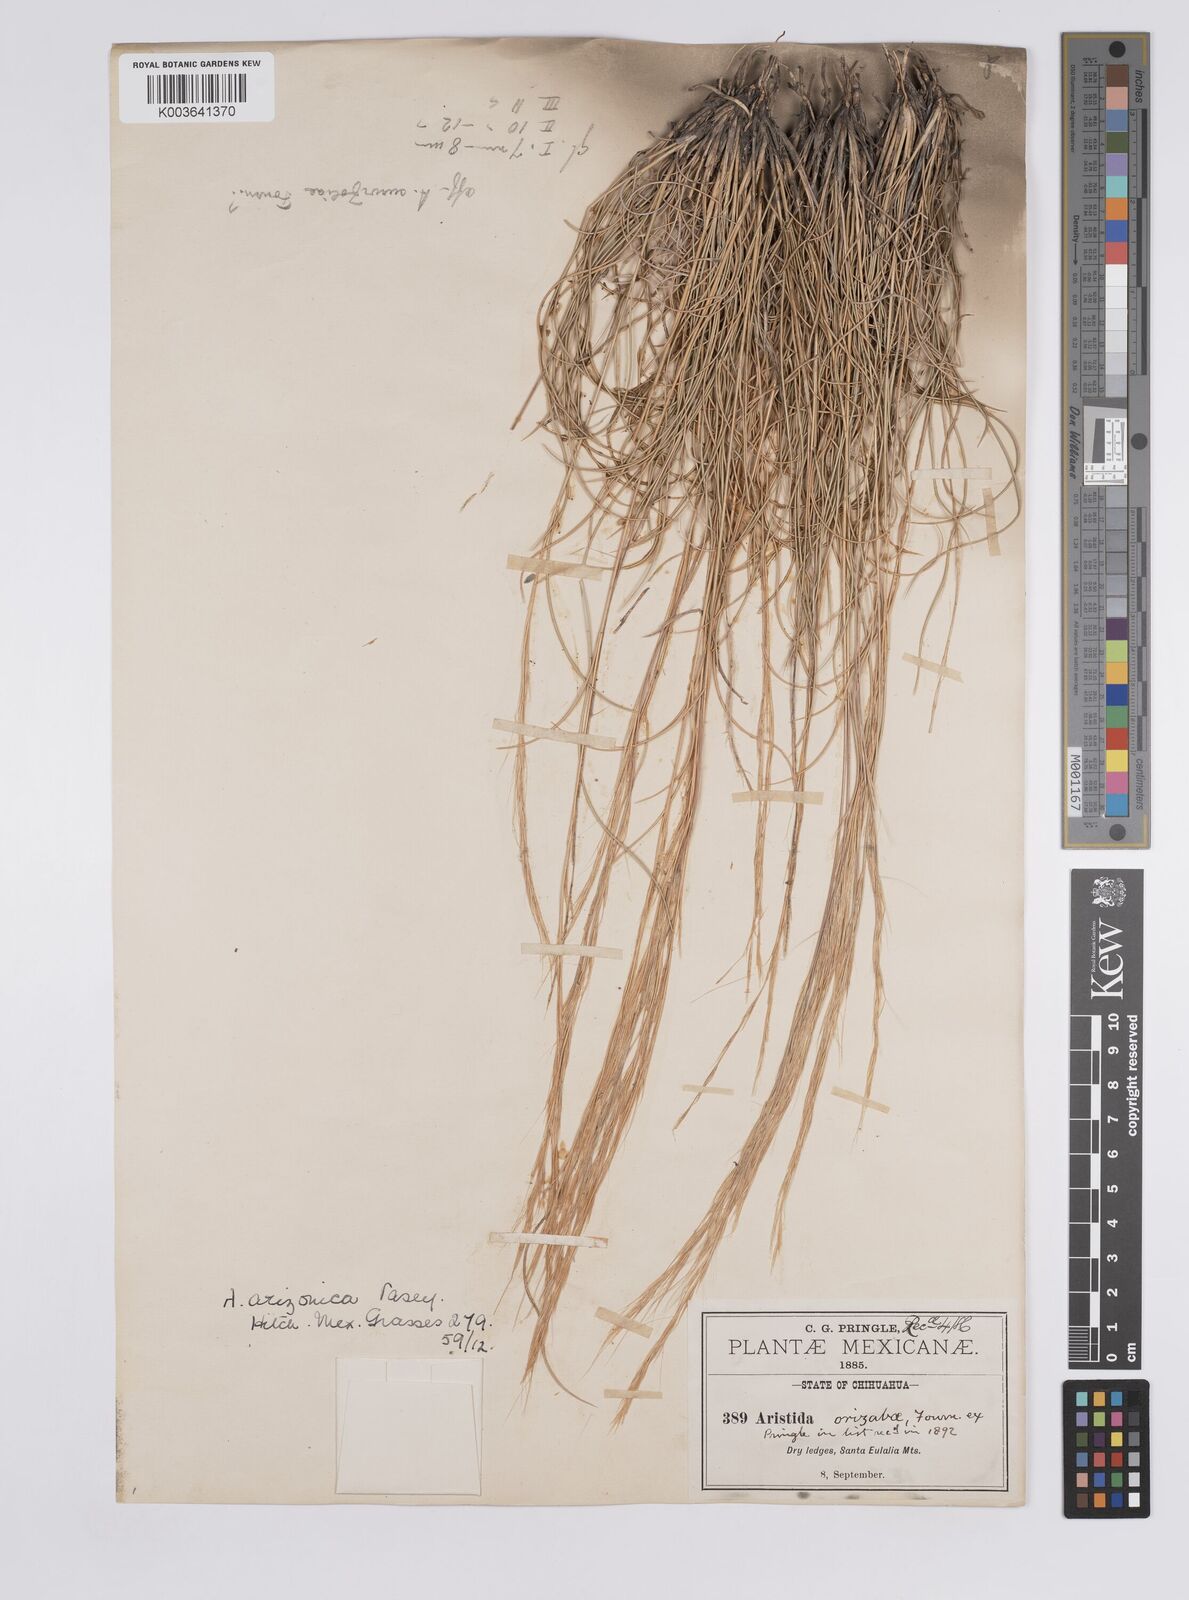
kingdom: Plantae
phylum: Tracheophyta
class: Liliopsida
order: Poales
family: Poaceae
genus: Aristida
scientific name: Aristida arizonica
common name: Arizona threeawn
